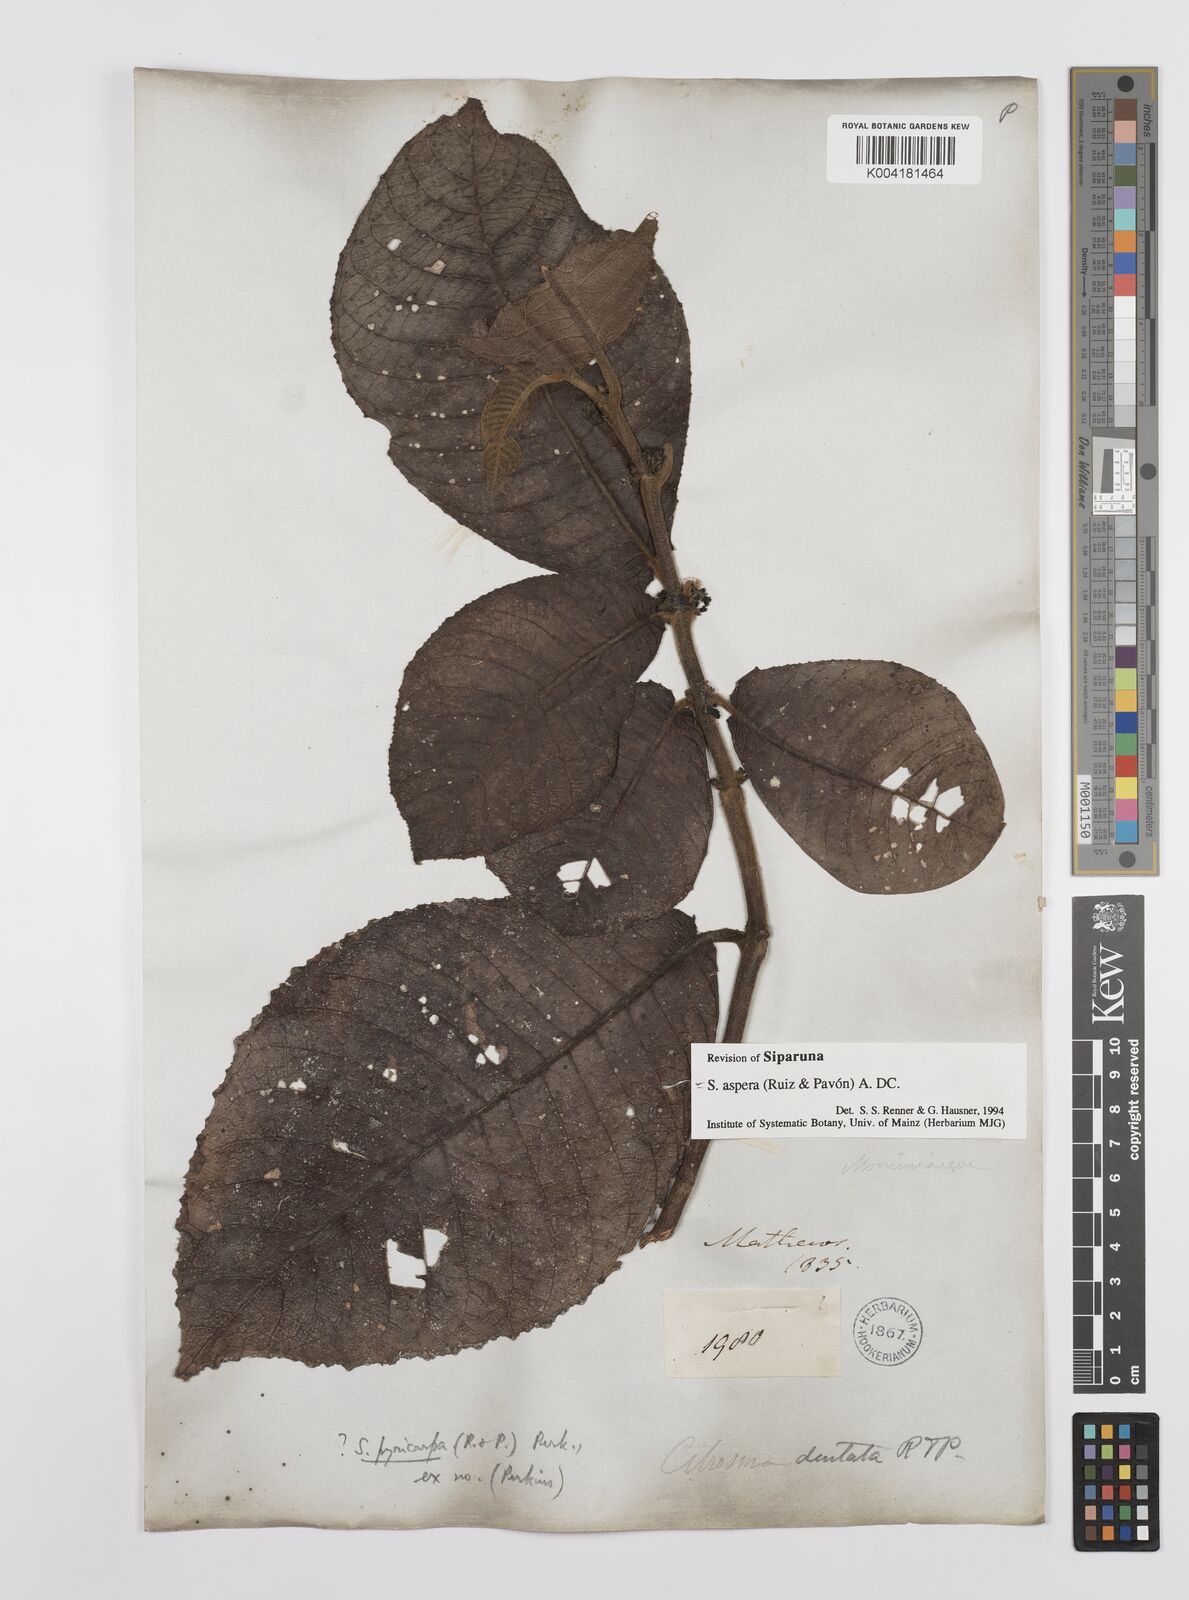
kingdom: Plantae
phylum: Tracheophyta
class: Magnoliopsida
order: Laurales
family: Siparunaceae
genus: Siparuna
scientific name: Siparuna aspera
